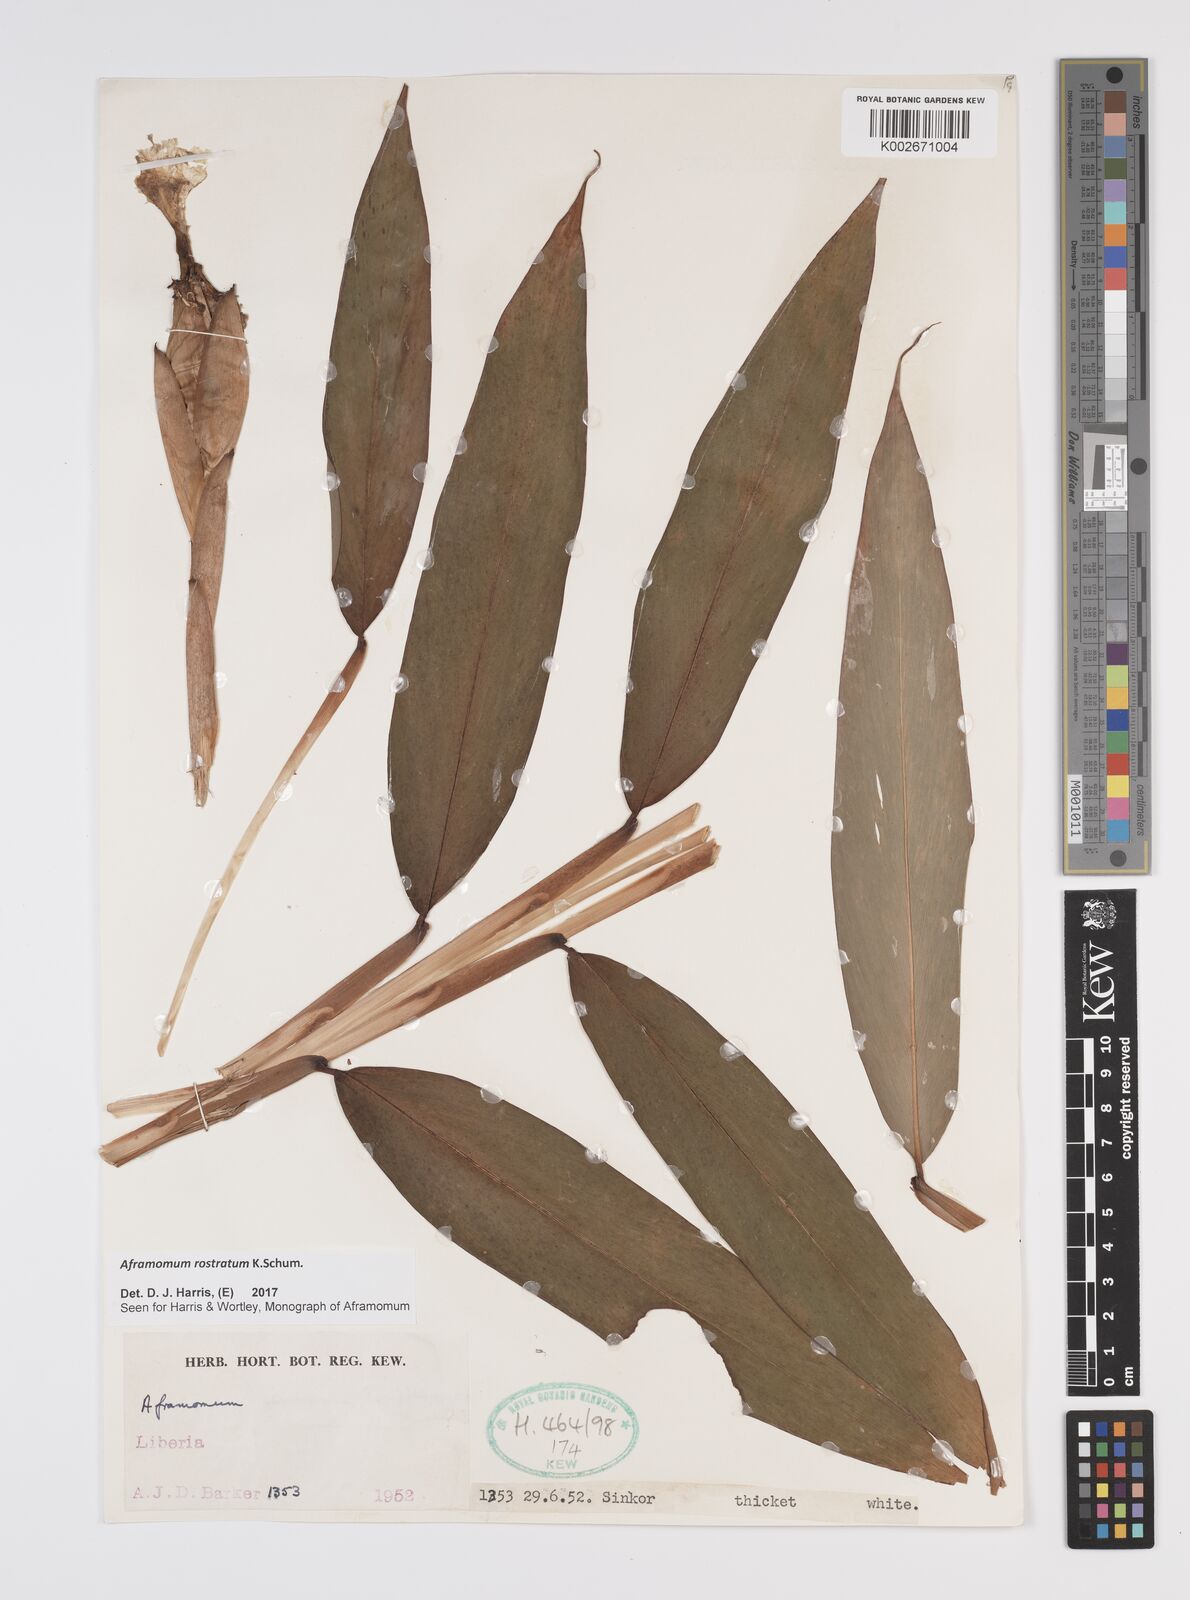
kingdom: Plantae
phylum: Tracheophyta
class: Liliopsida
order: Zingiberales
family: Zingiberaceae
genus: Aframomum
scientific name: Aframomum rostratum
